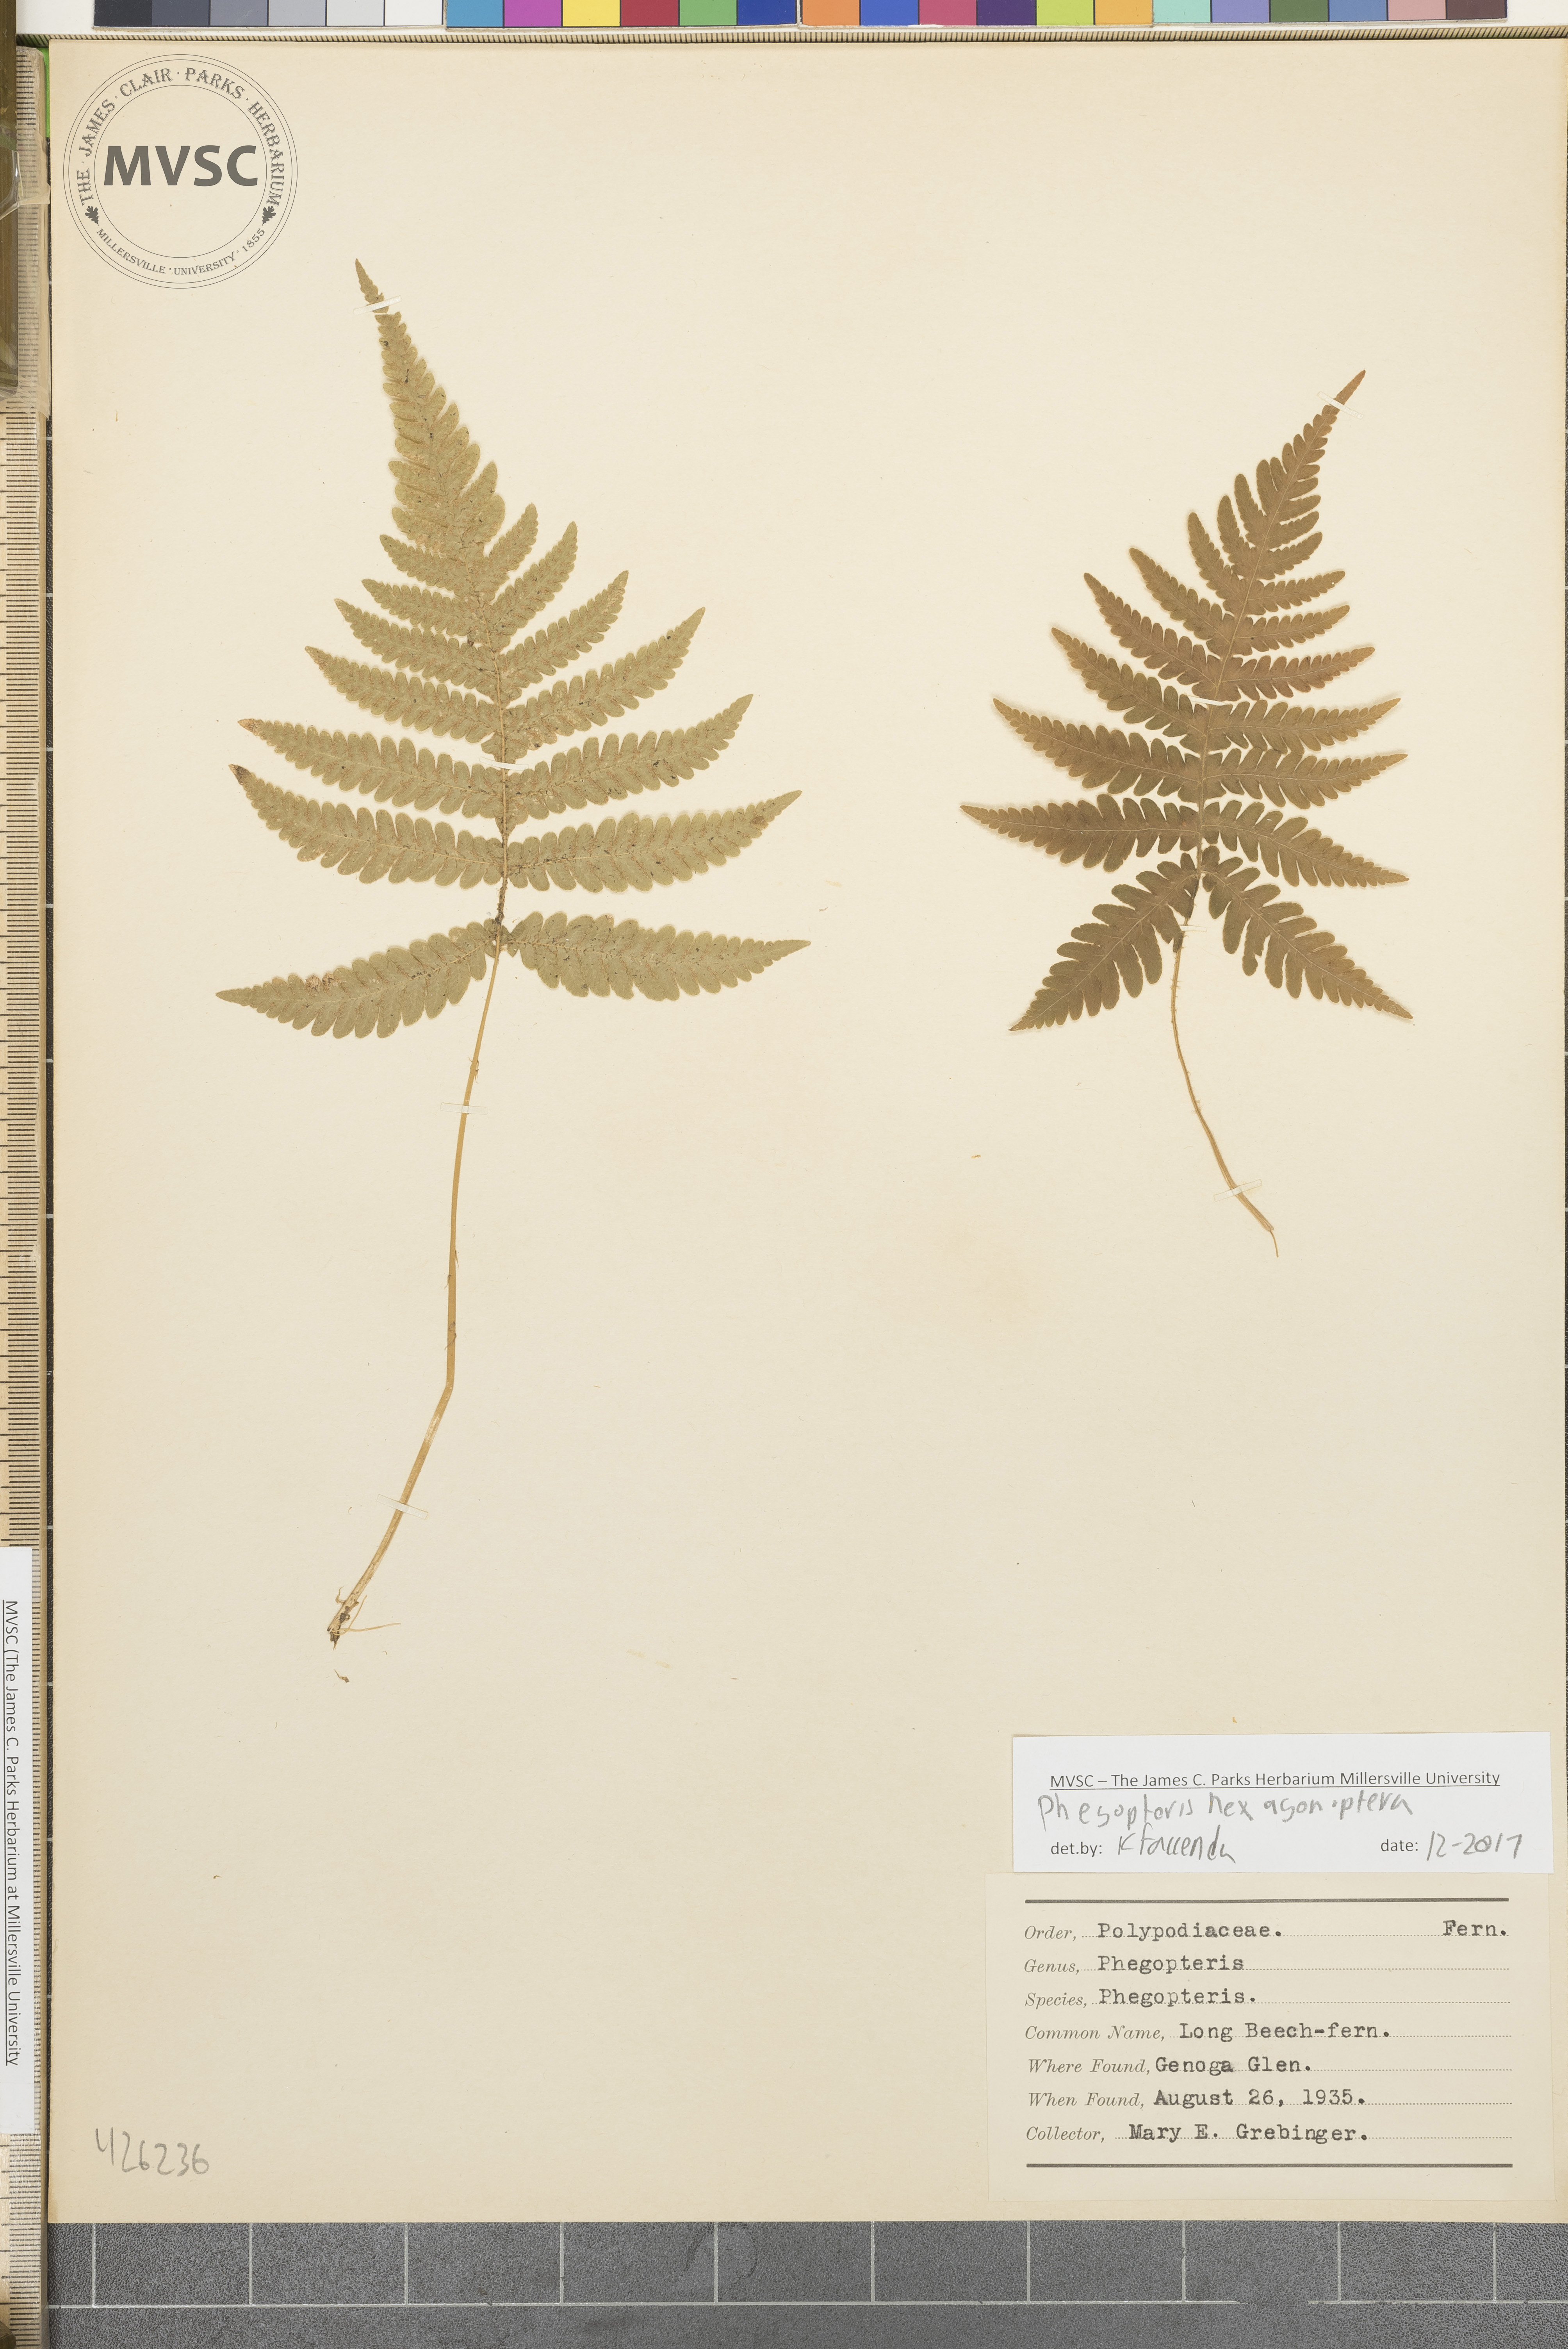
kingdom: Plantae
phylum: Tracheophyta
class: Polypodiopsida
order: Polypodiales
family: Thelypteridaceae
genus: Phegopteris
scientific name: Phegopteris hexagonoptera
